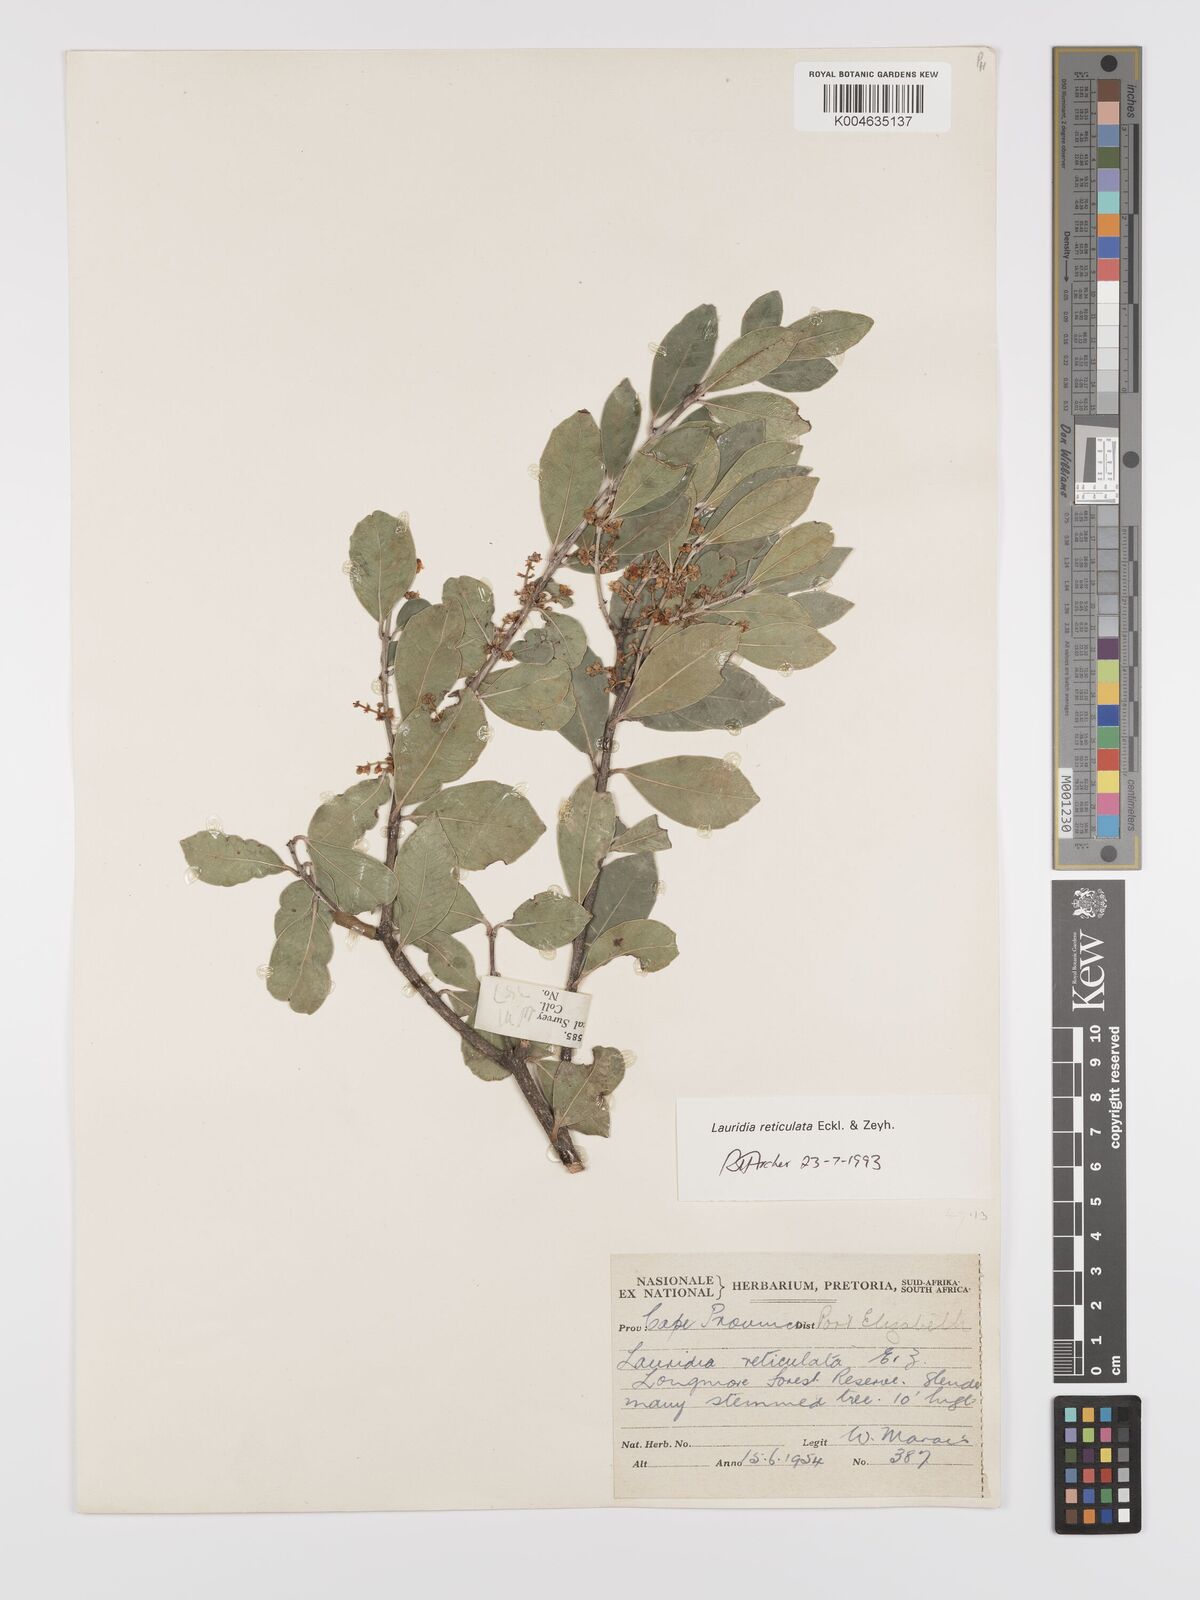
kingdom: Plantae
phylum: Tracheophyta
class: Magnoliopsida
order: Celastrales
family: Celastraceae
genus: Lauridia
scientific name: Lauridia reticulata
